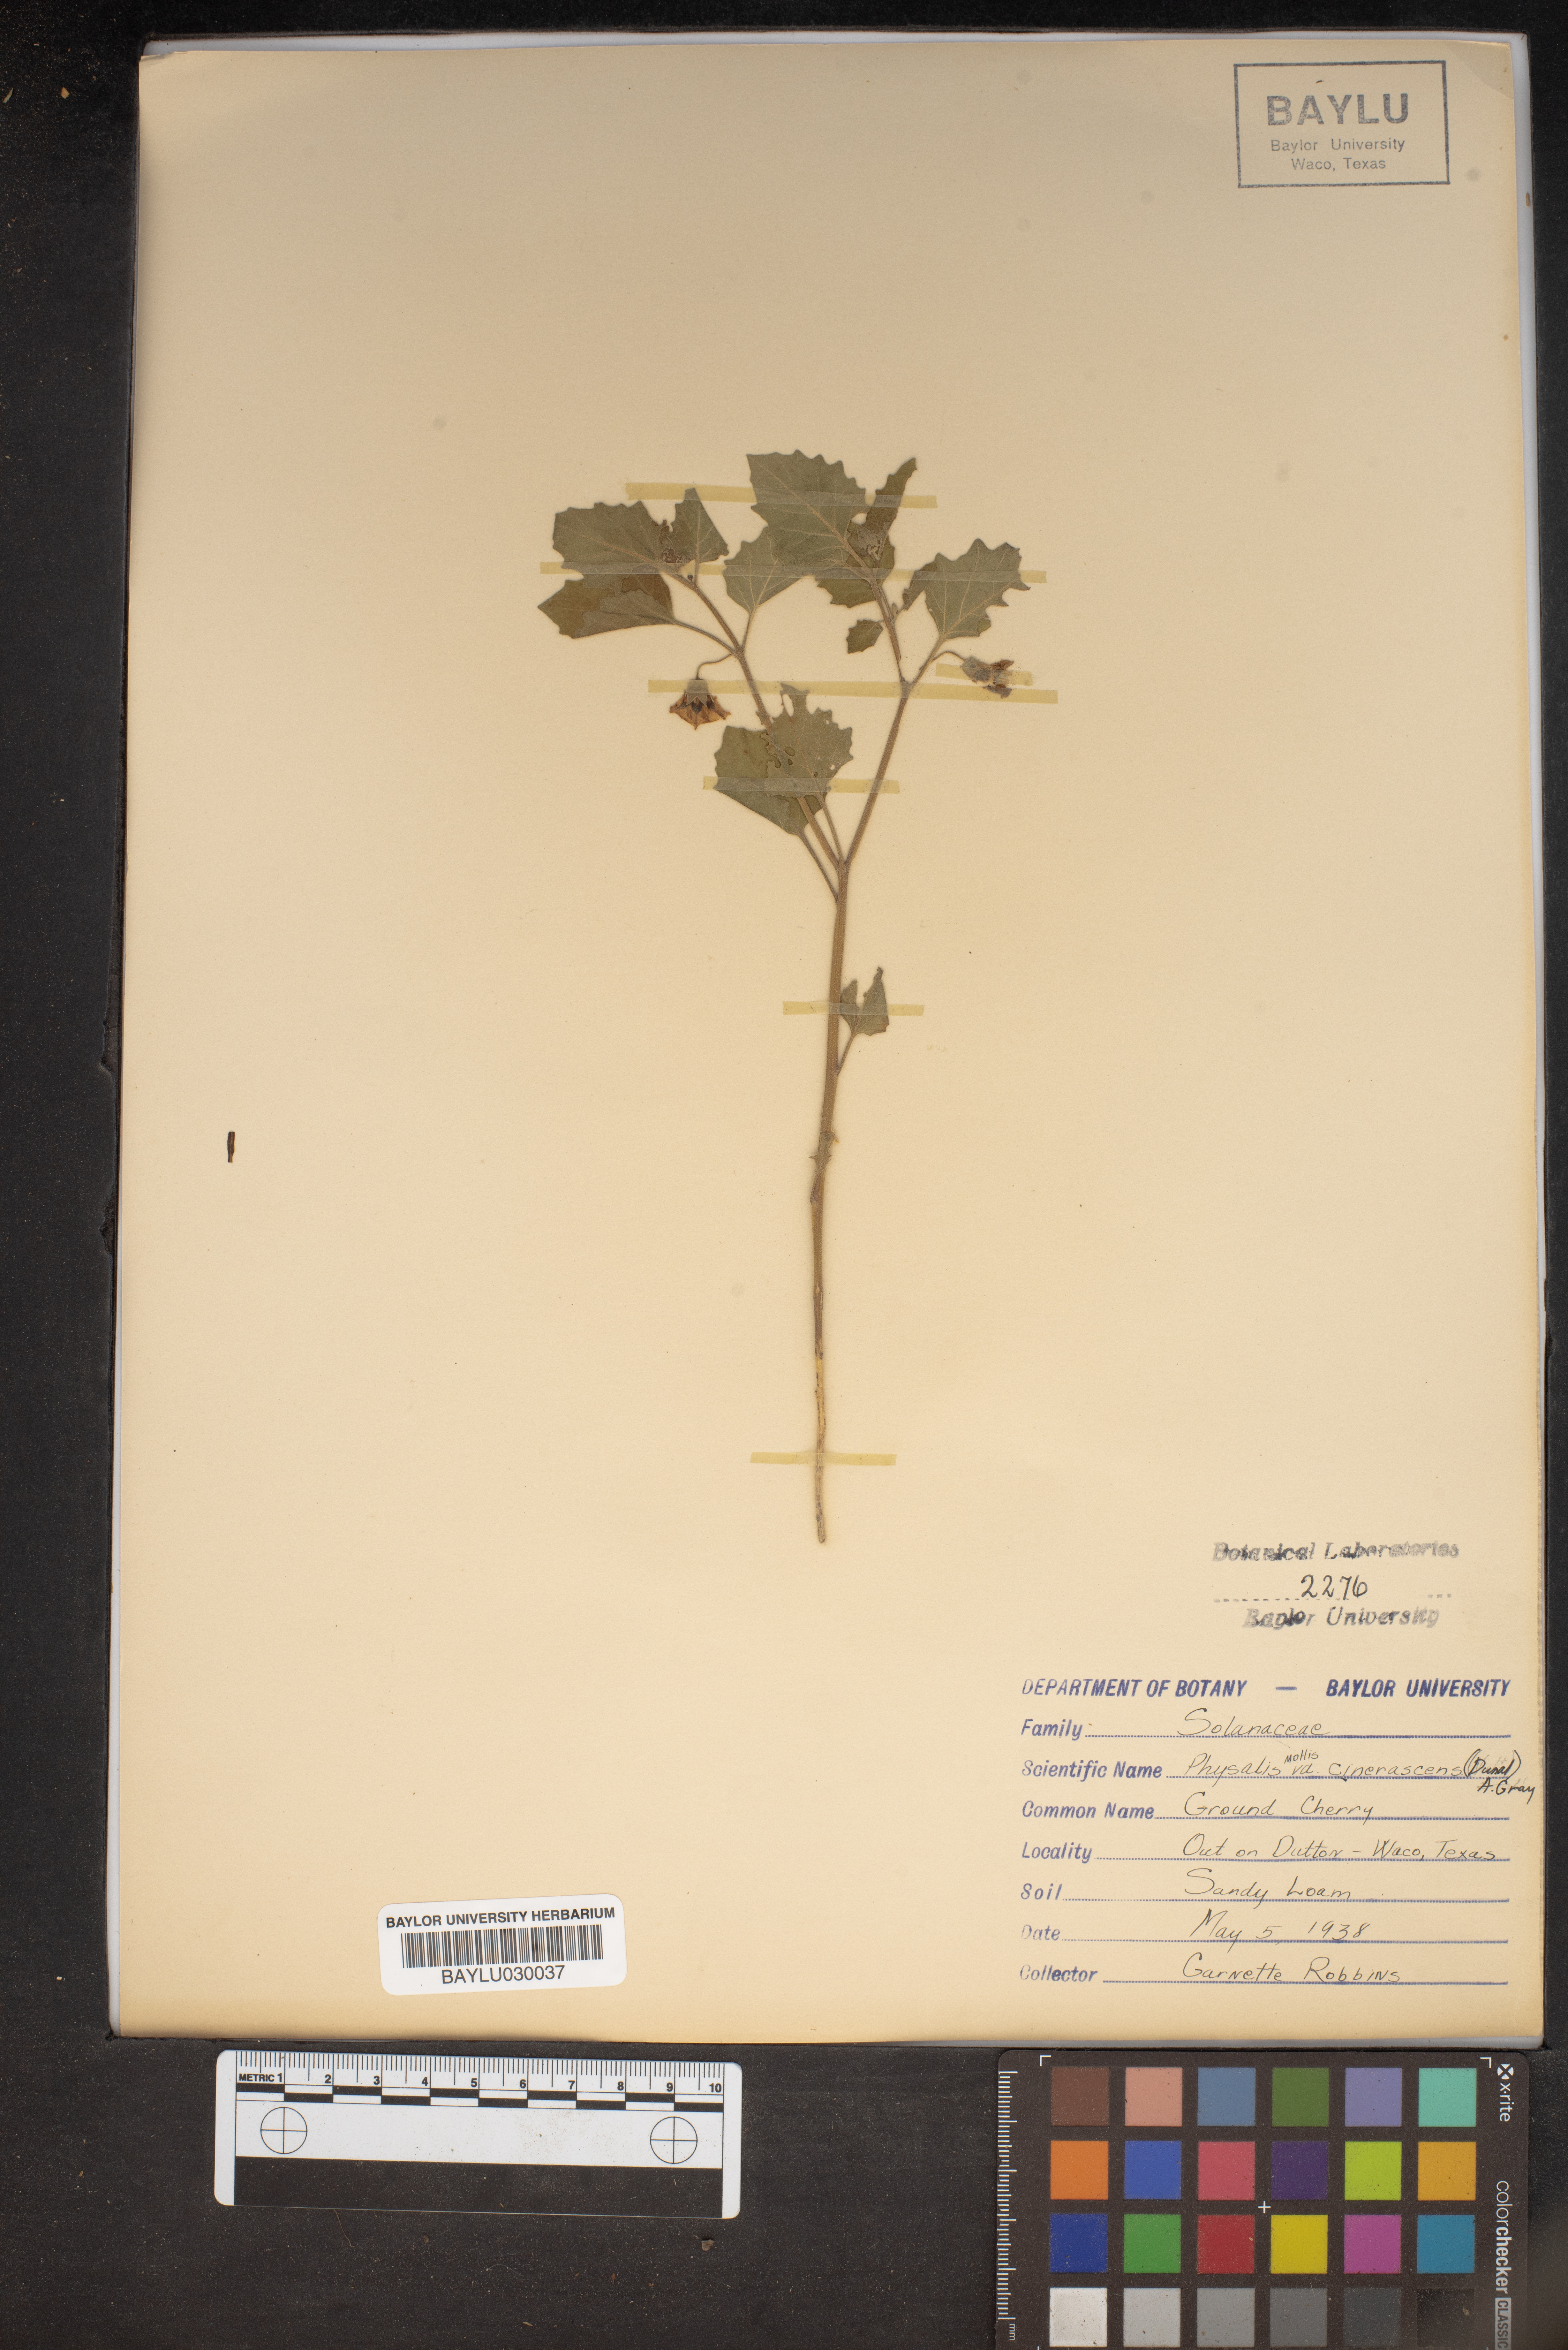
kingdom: Plantae
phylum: Tracheophyta
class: Magnoliopsida
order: Solanales
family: Solanaceae
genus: Physalis
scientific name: Physalis cinerascens
